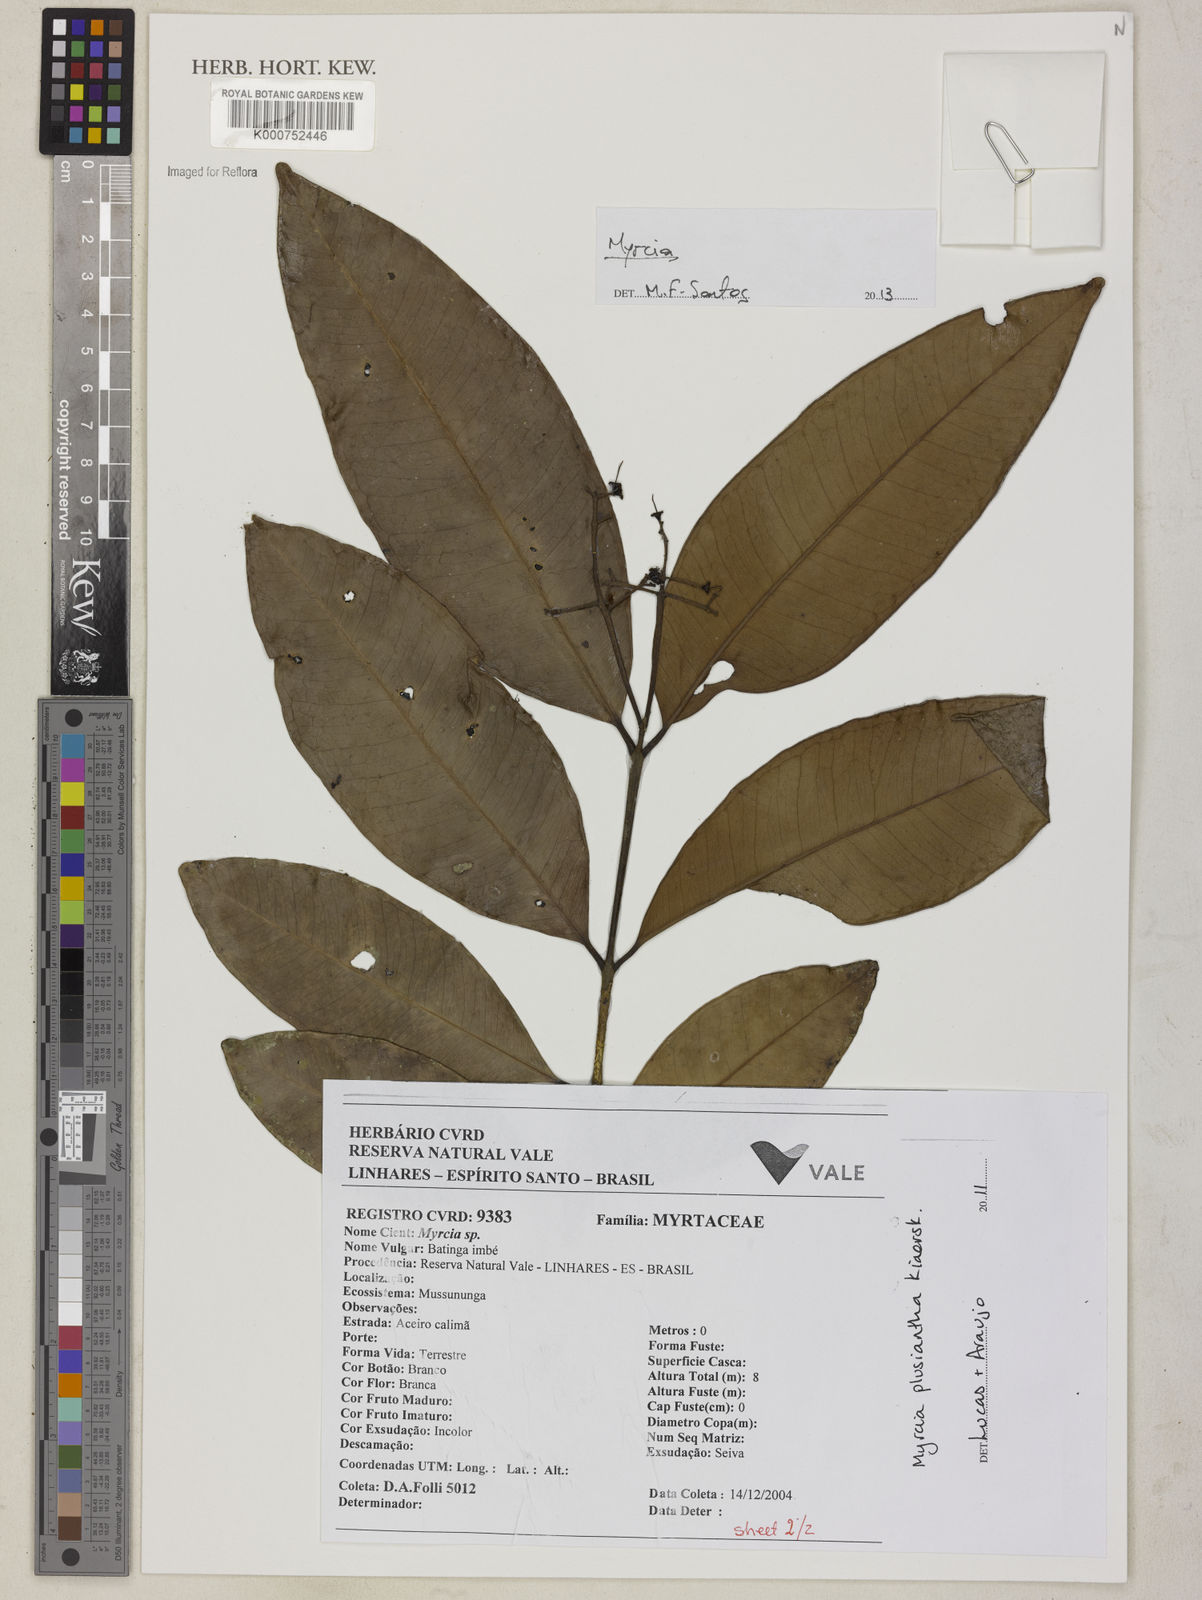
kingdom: Plantae
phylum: Tracheophyta
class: Magnoliopsida
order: Myrtales
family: Myrtaceae
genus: Myrcia
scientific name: Myrcia gilsoniana
